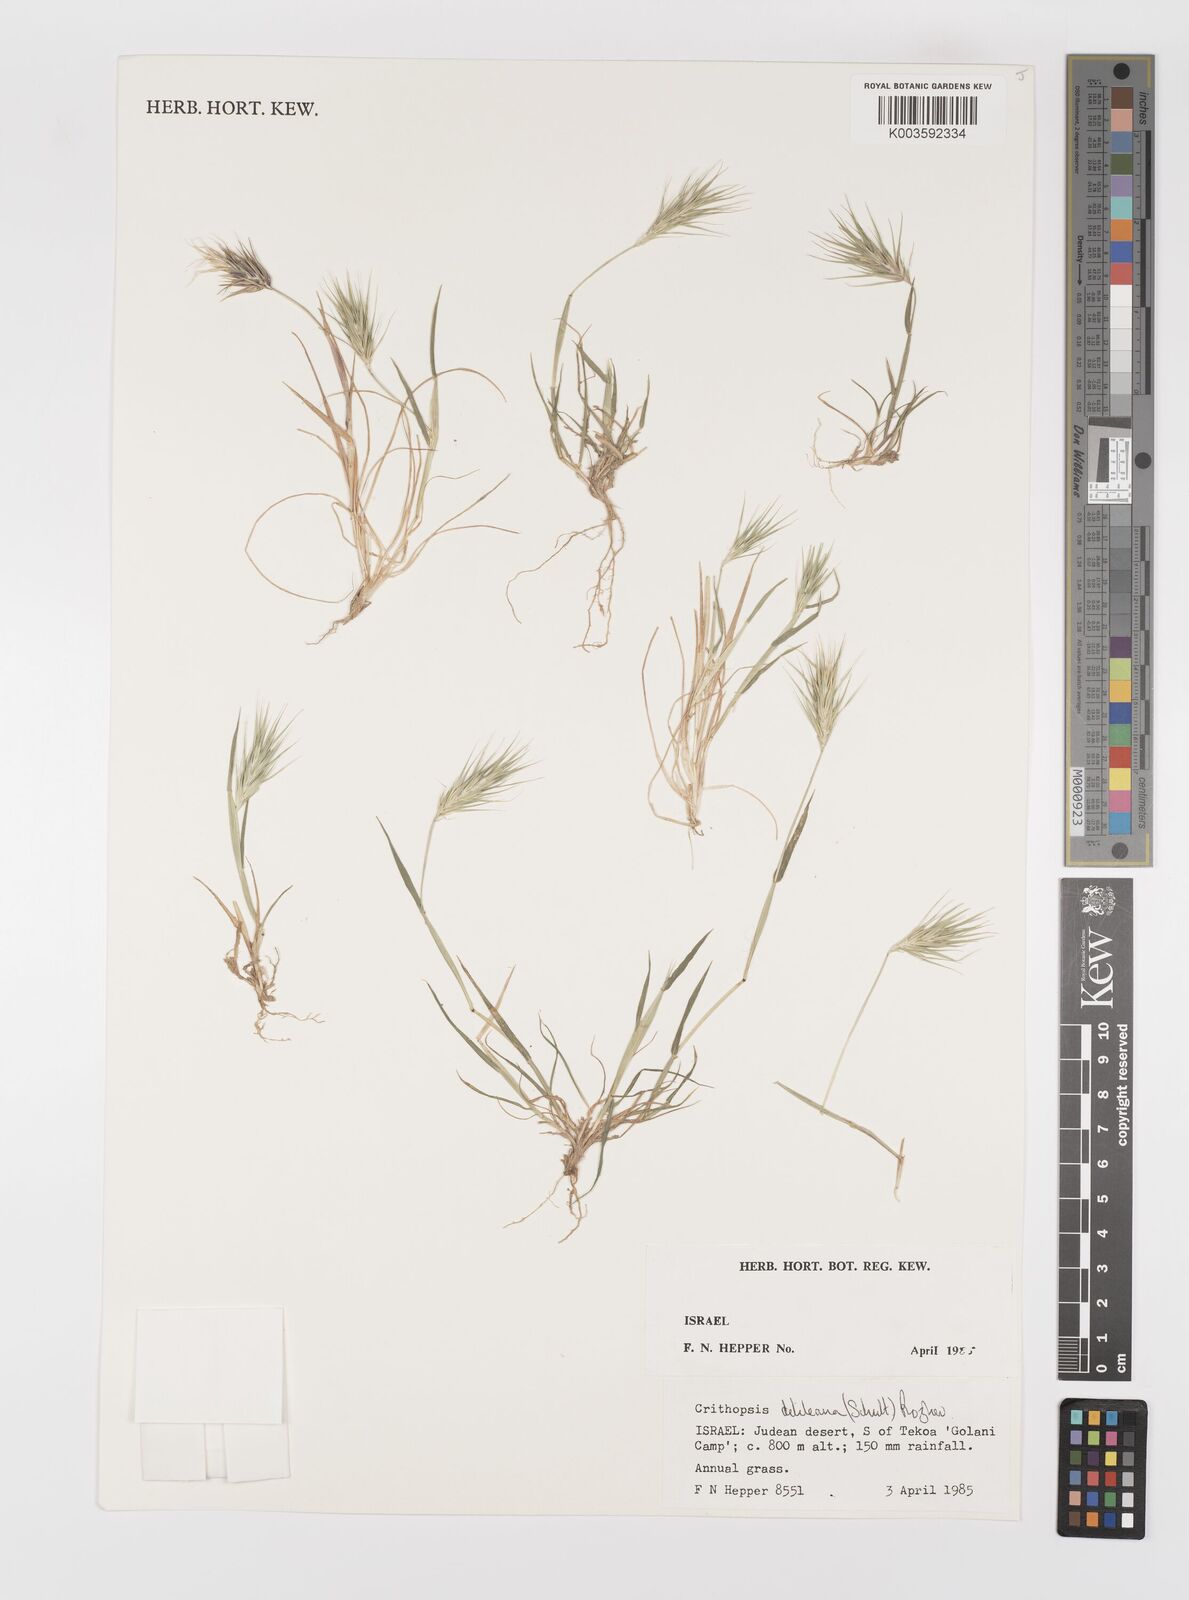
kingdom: Plantae
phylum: Tracheophyta
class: Liliopsida
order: Poales
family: Poaceae
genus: Crithopsis
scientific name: Crithopsis delileana
